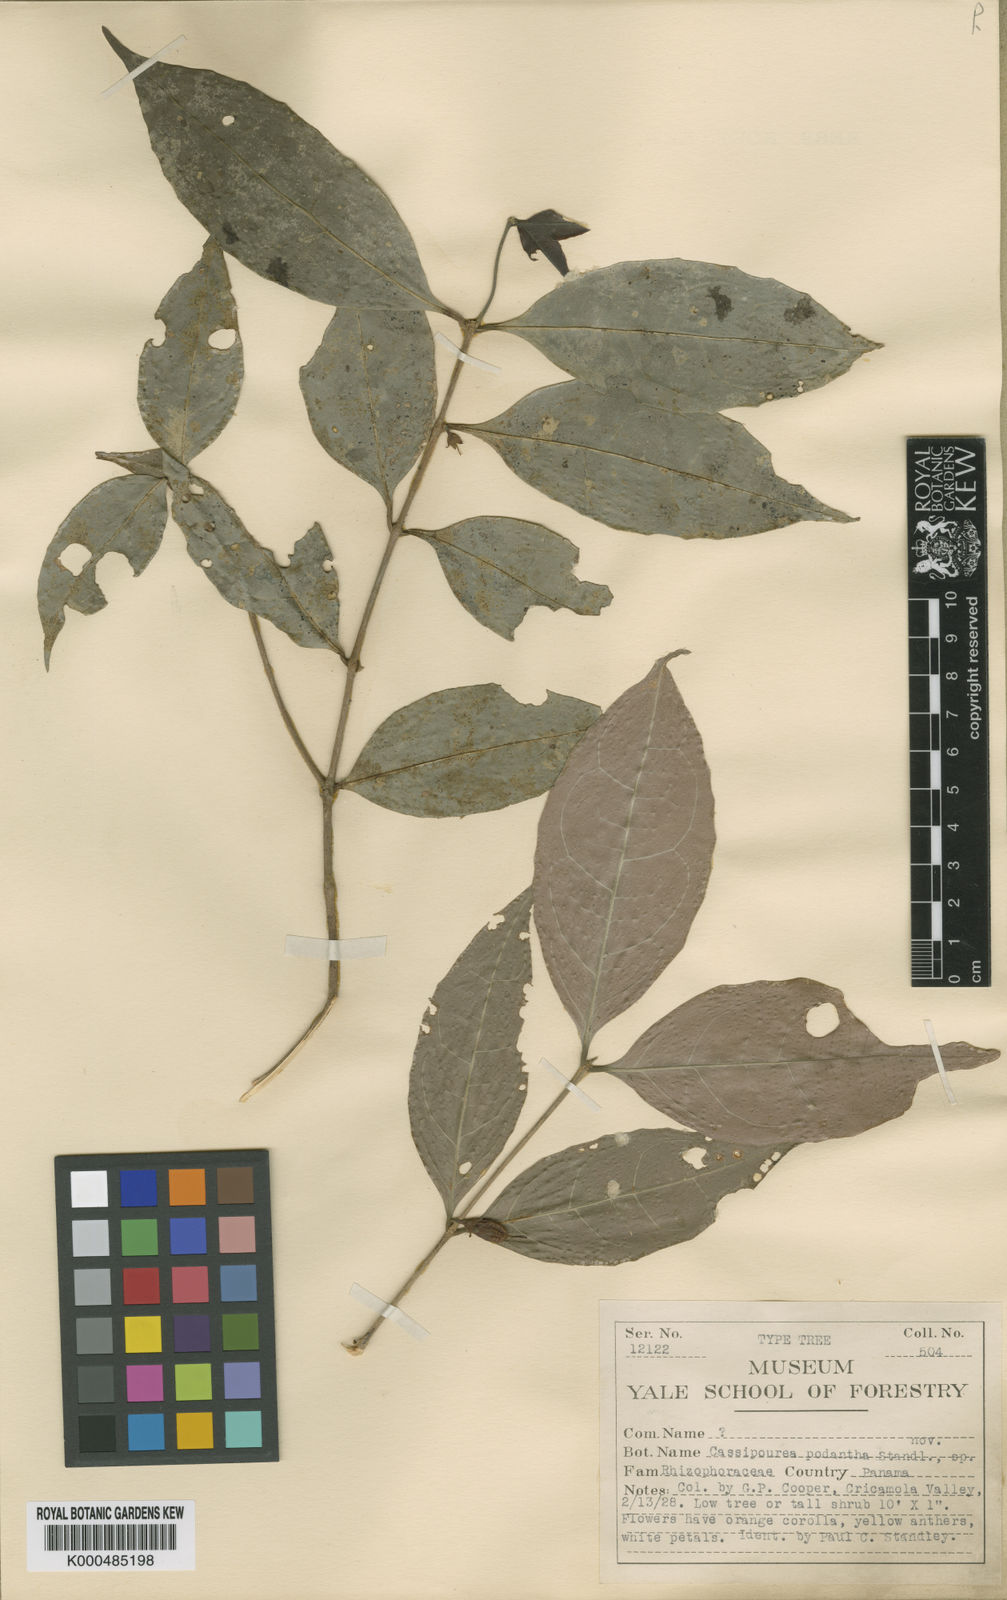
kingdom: Plantae
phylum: Tracheophyta
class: Magnoliopsida
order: Malpighiales
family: Rhizophoraceae
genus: Cassipourea
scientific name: Cassipourea elliptica
